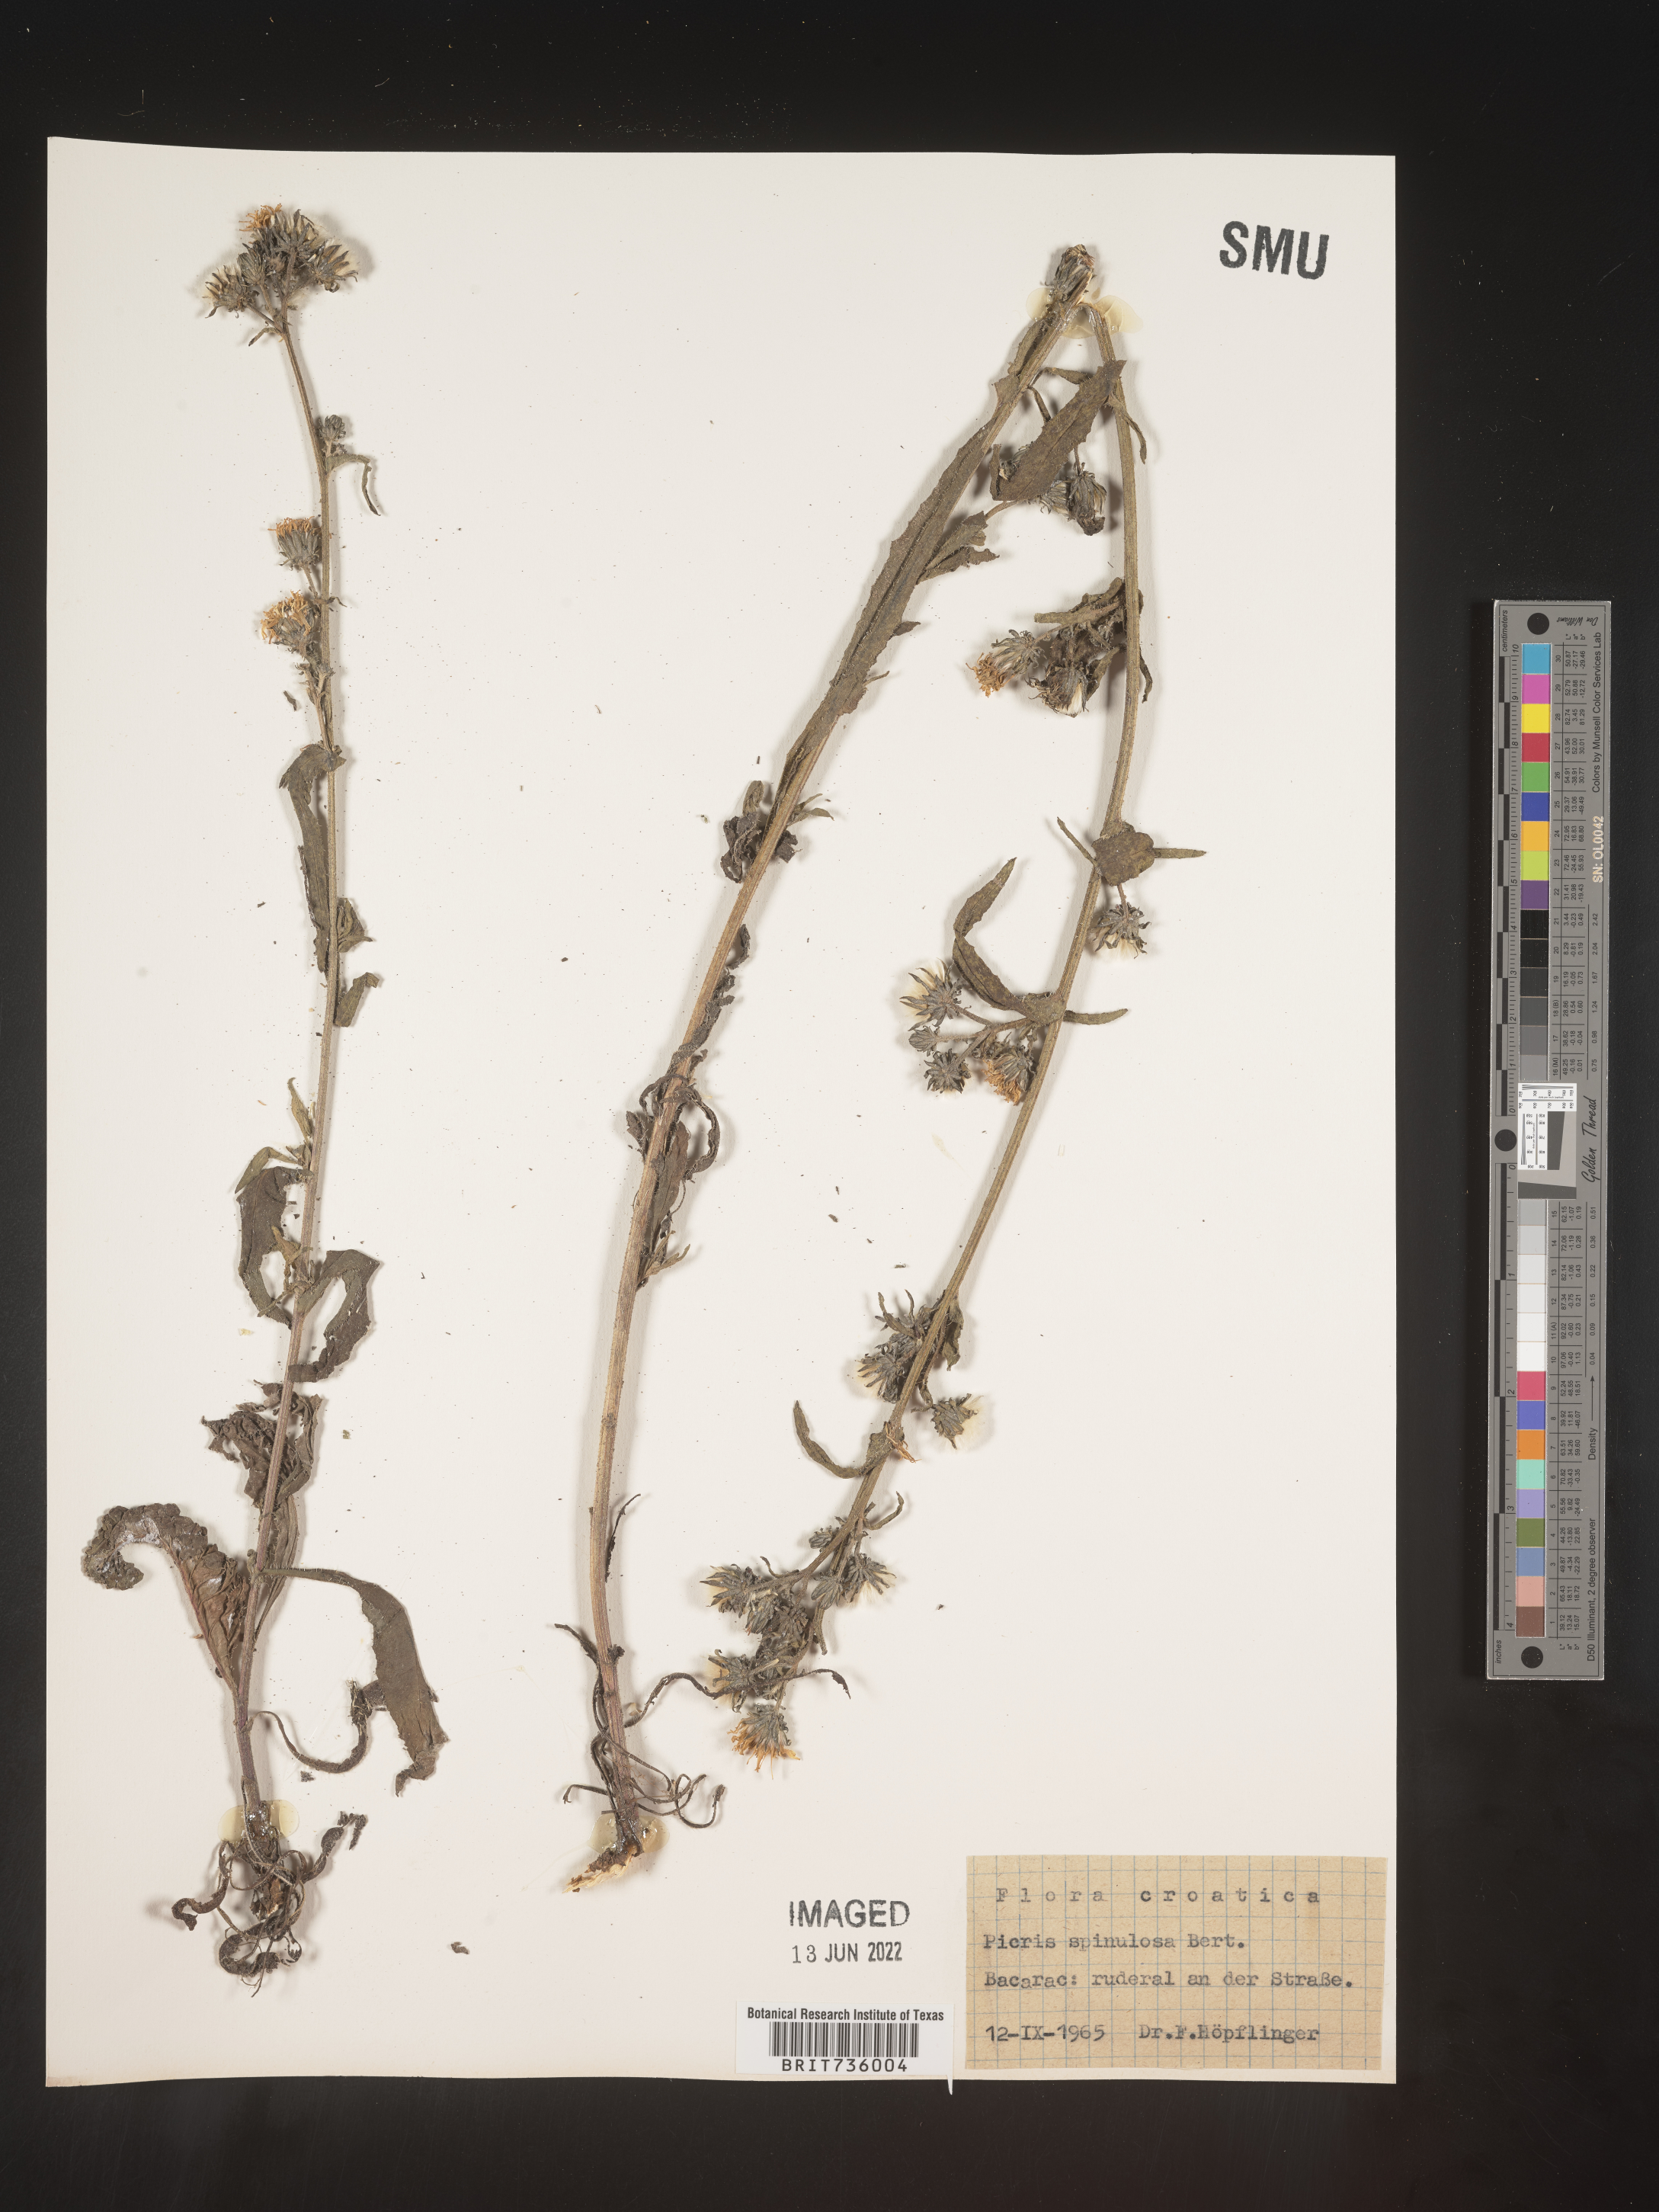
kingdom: Plantae
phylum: Tracheophyta
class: Magnoliopsida
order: Asterales
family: Asteraceae
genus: Picris
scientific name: Picris
